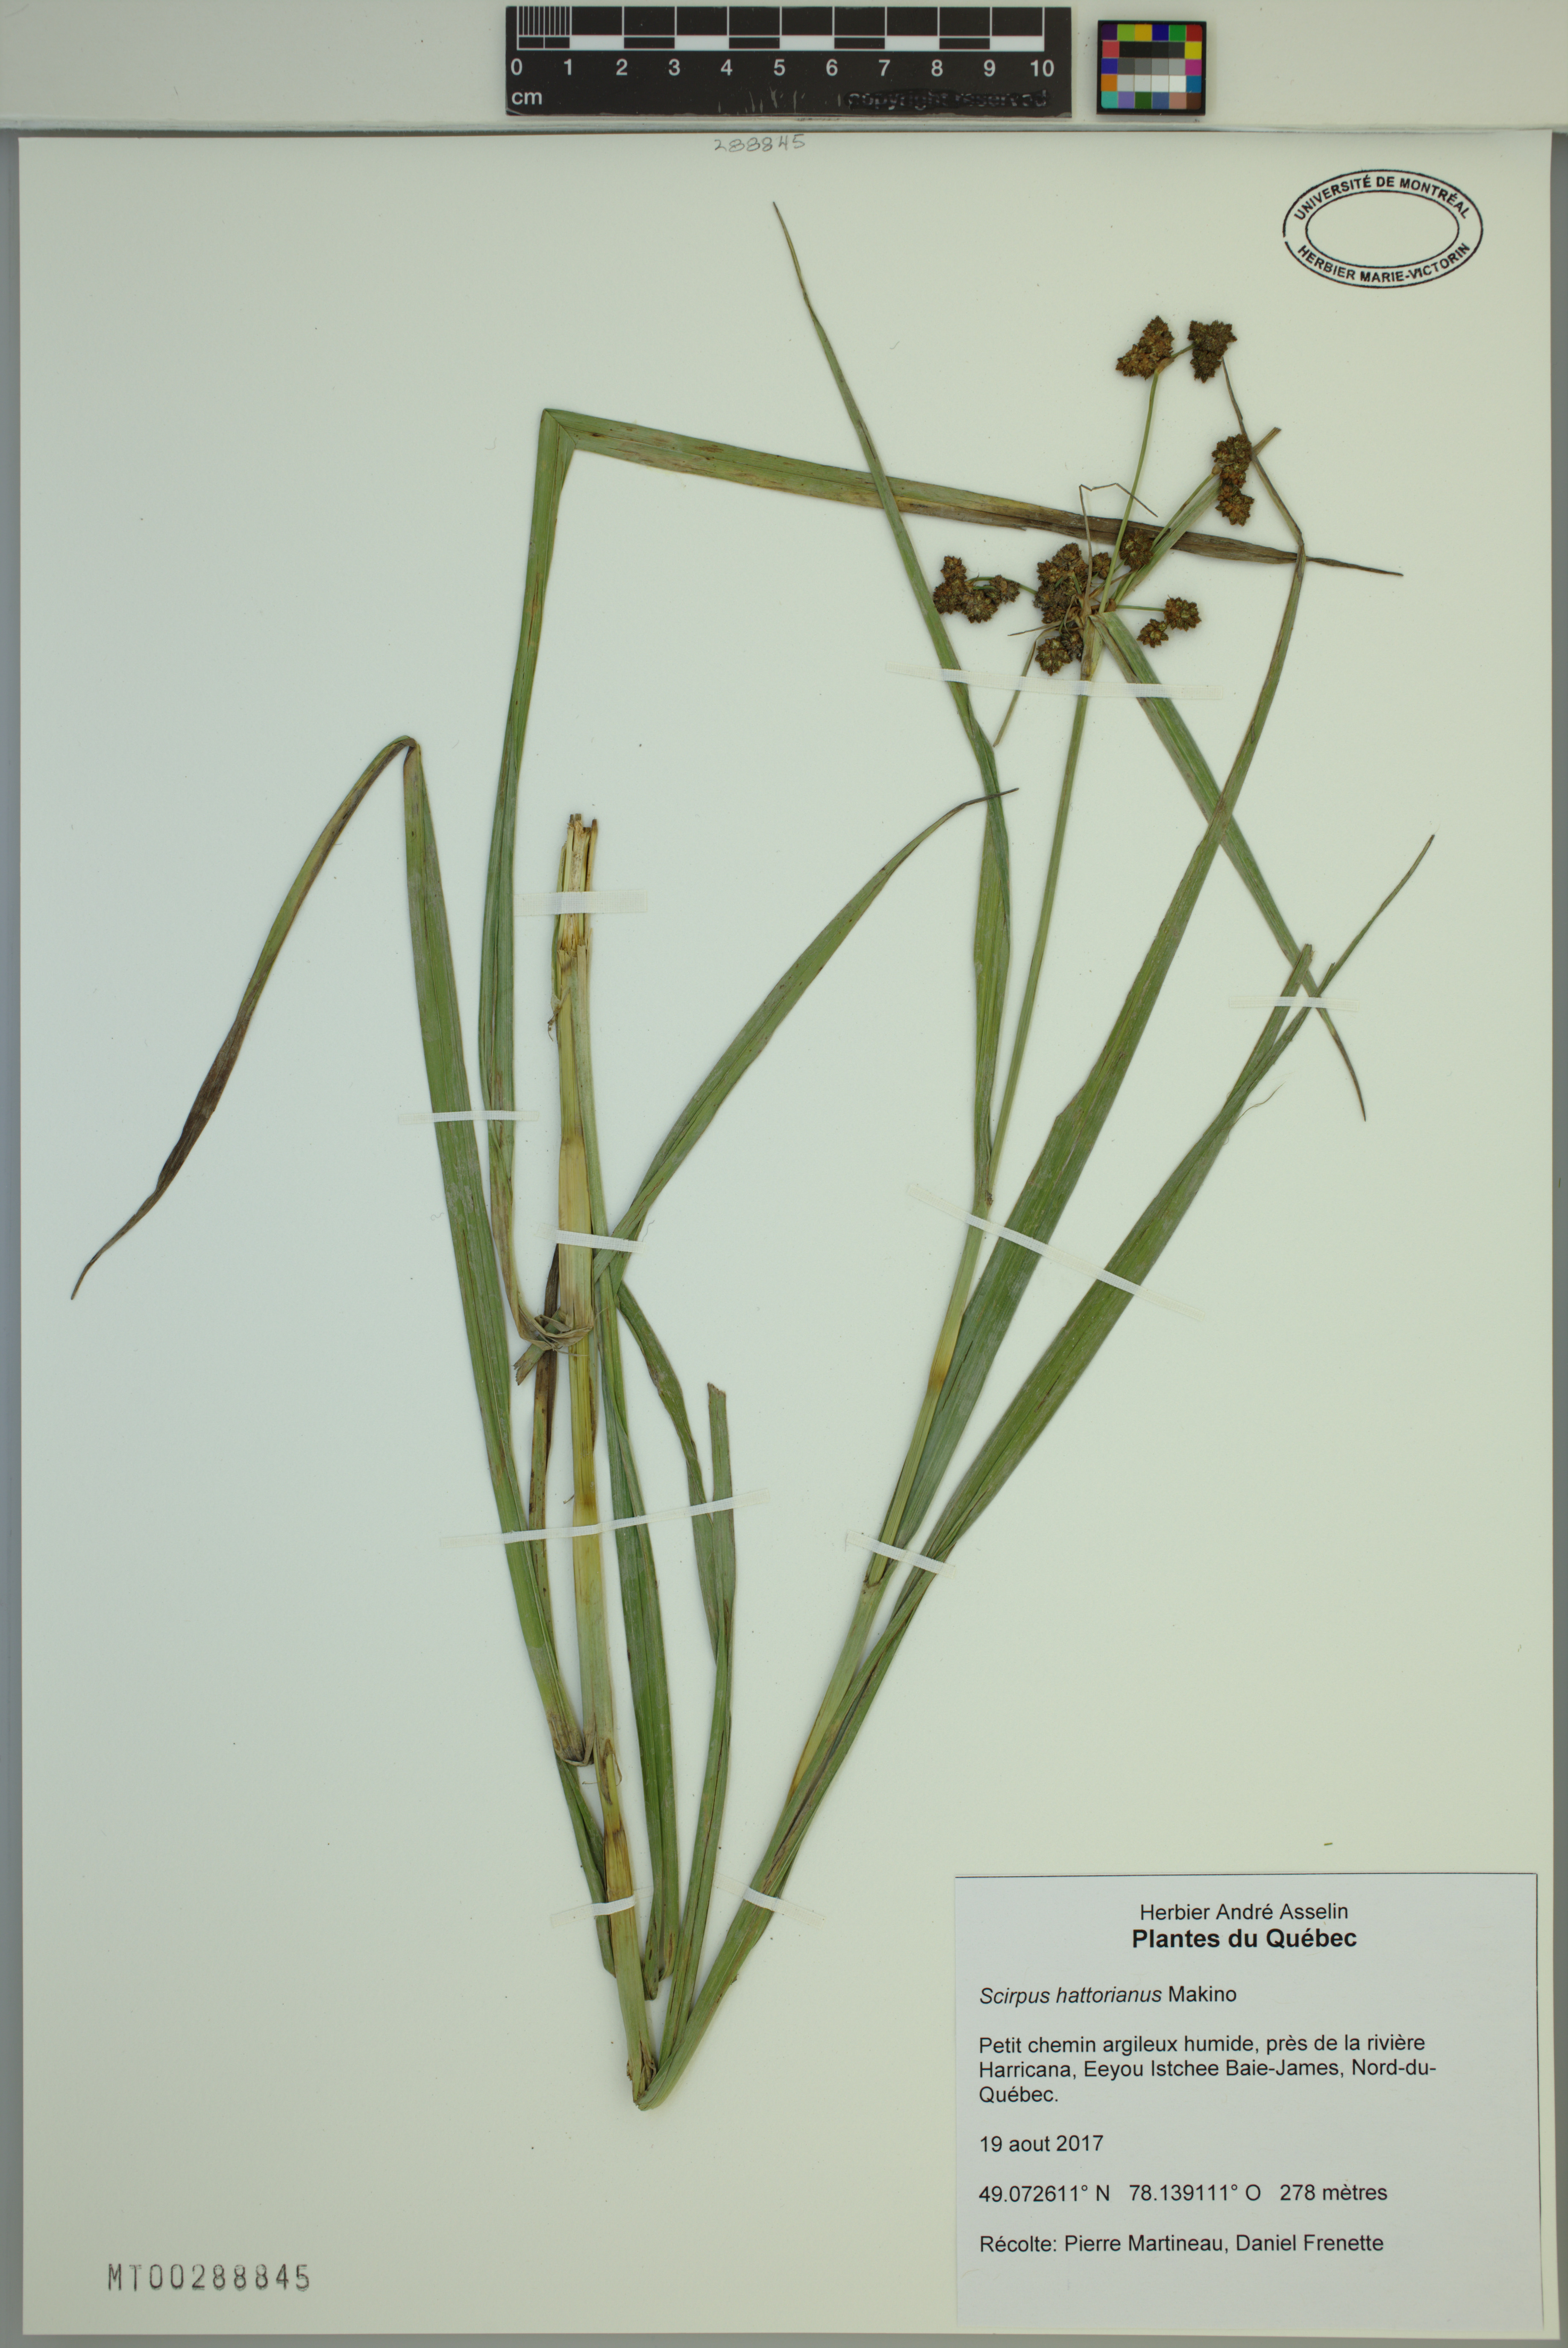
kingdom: Plantae
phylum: Tracheophyta
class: Liliopsida
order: Poales
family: Cyperaceae
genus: Scirpus
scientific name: Scirpus hattorianus
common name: Early dark-green bulrush
